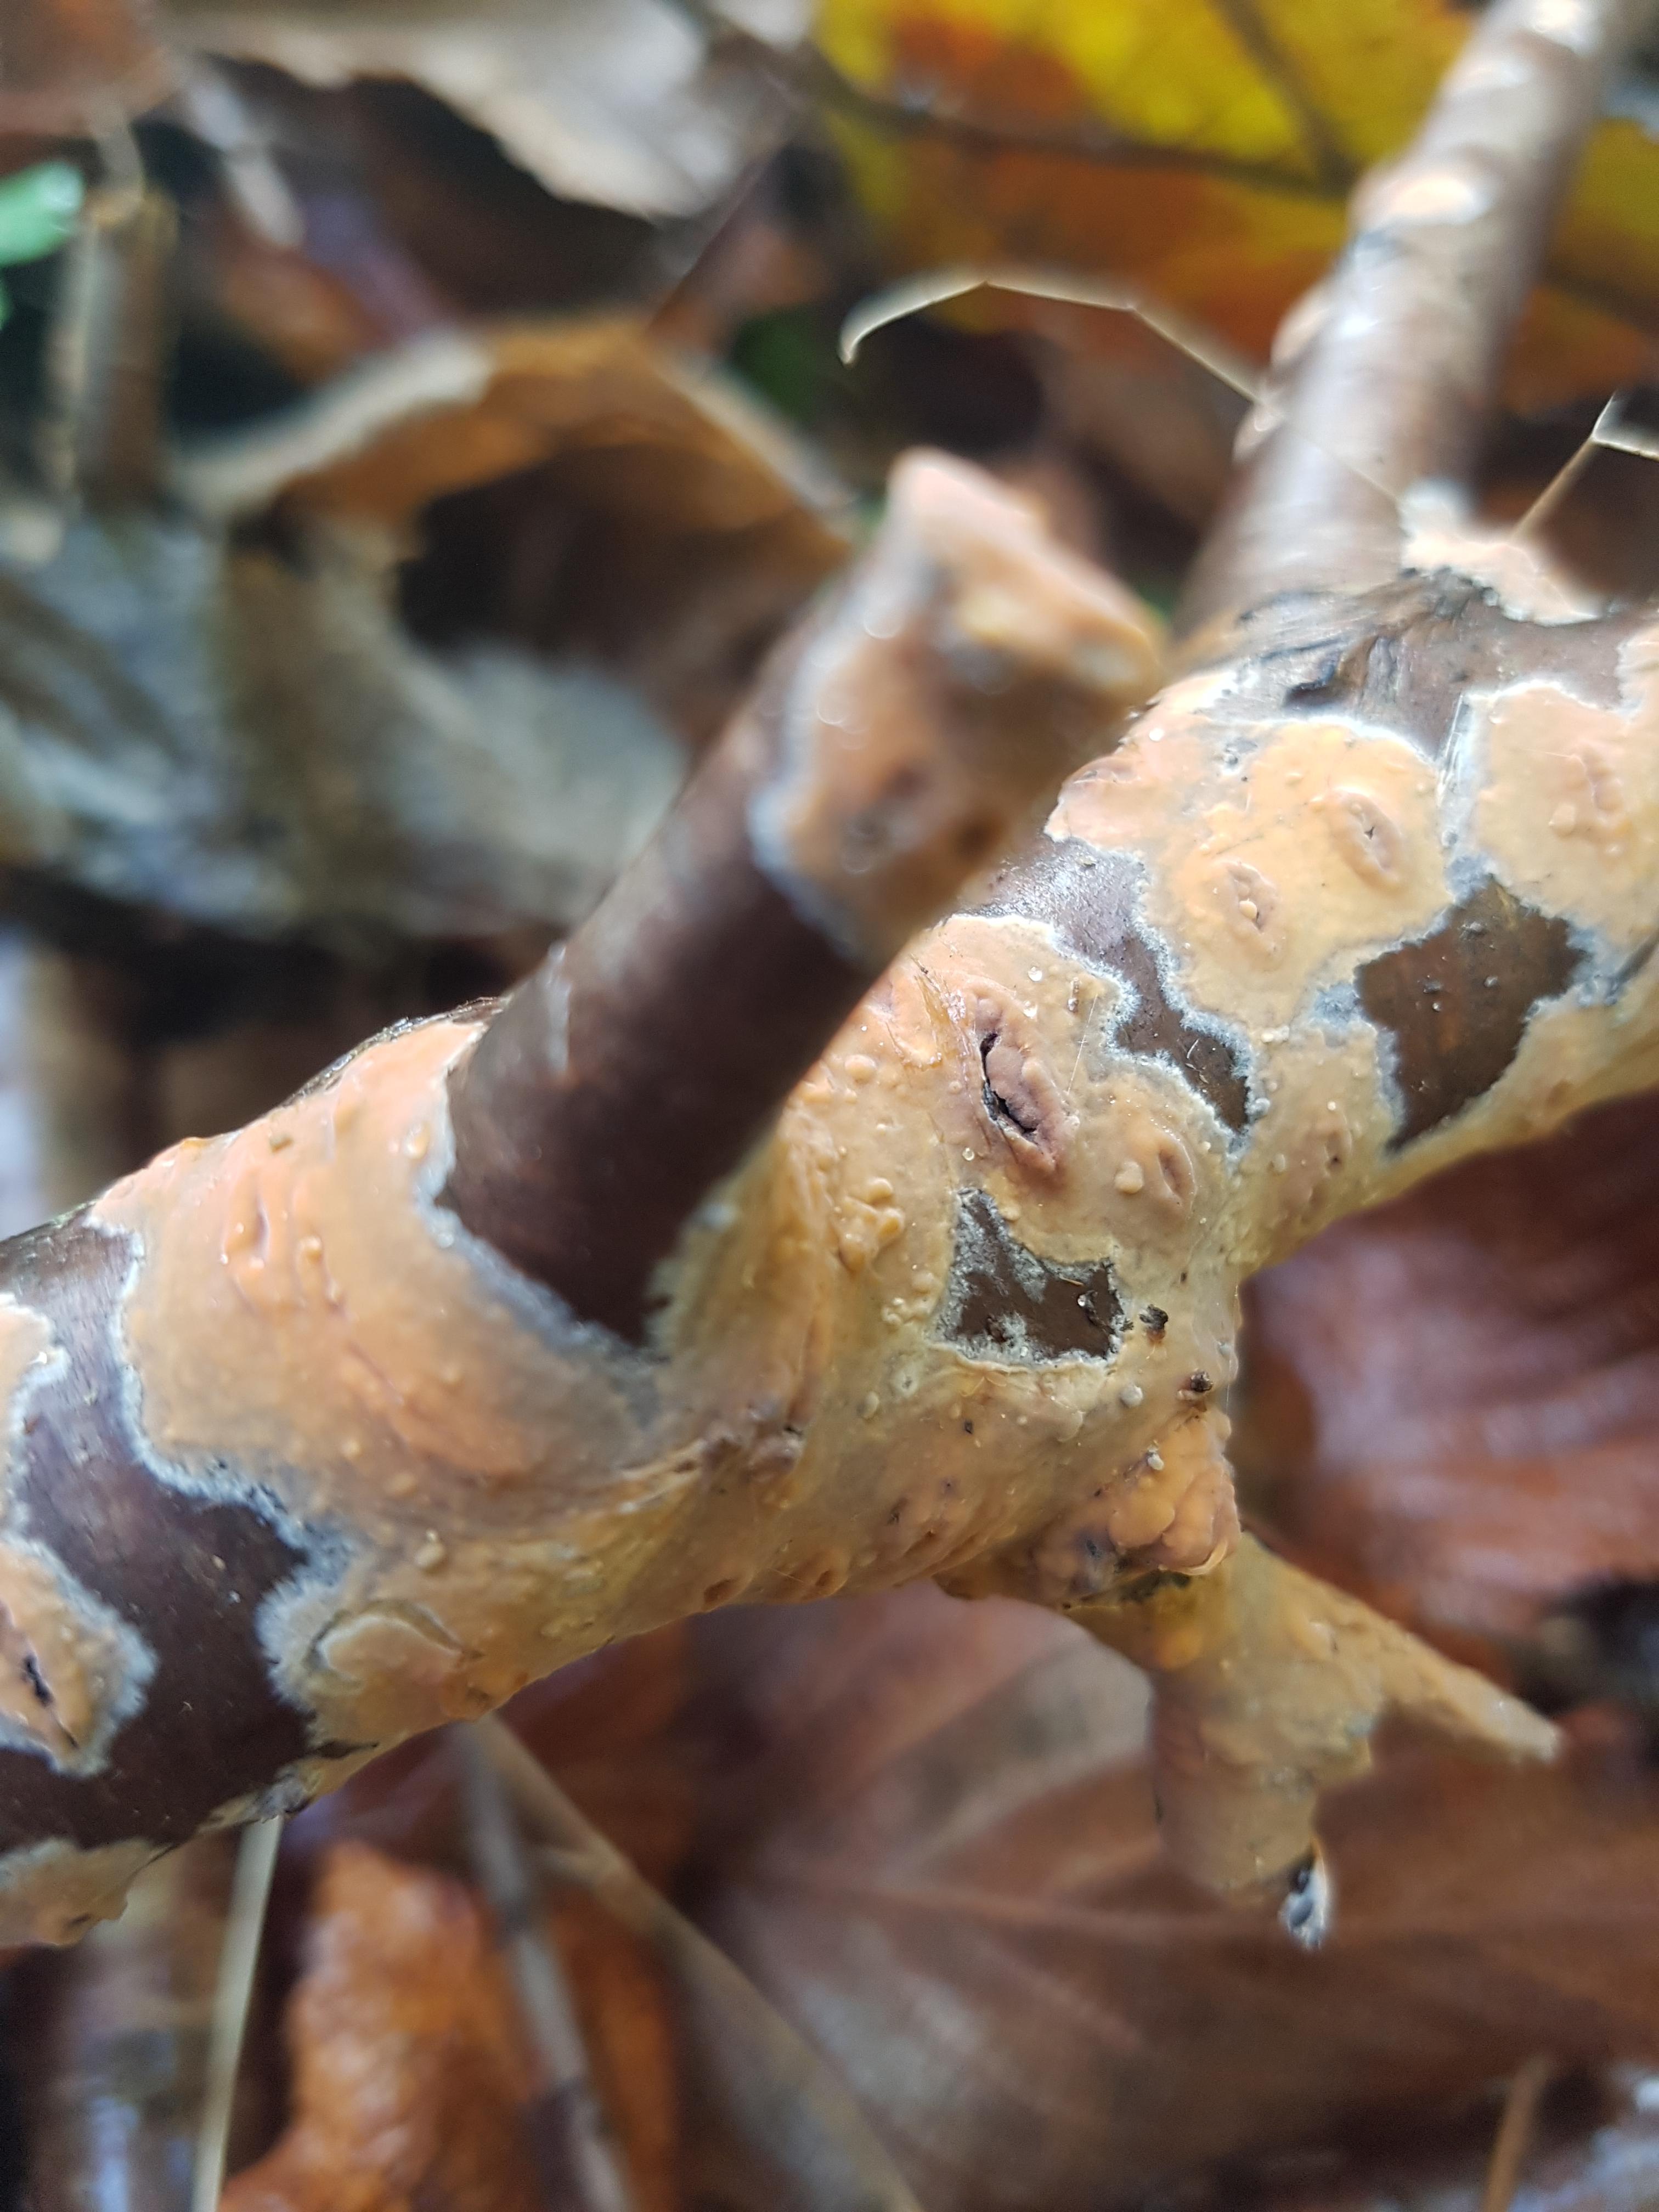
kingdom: Fungi
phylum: Basidiomycota
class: Agaricomycetes
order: Russulales
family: Peniophoraceae
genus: Peniophora
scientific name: Peniophora incarnata
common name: laksefarvet voksskind
